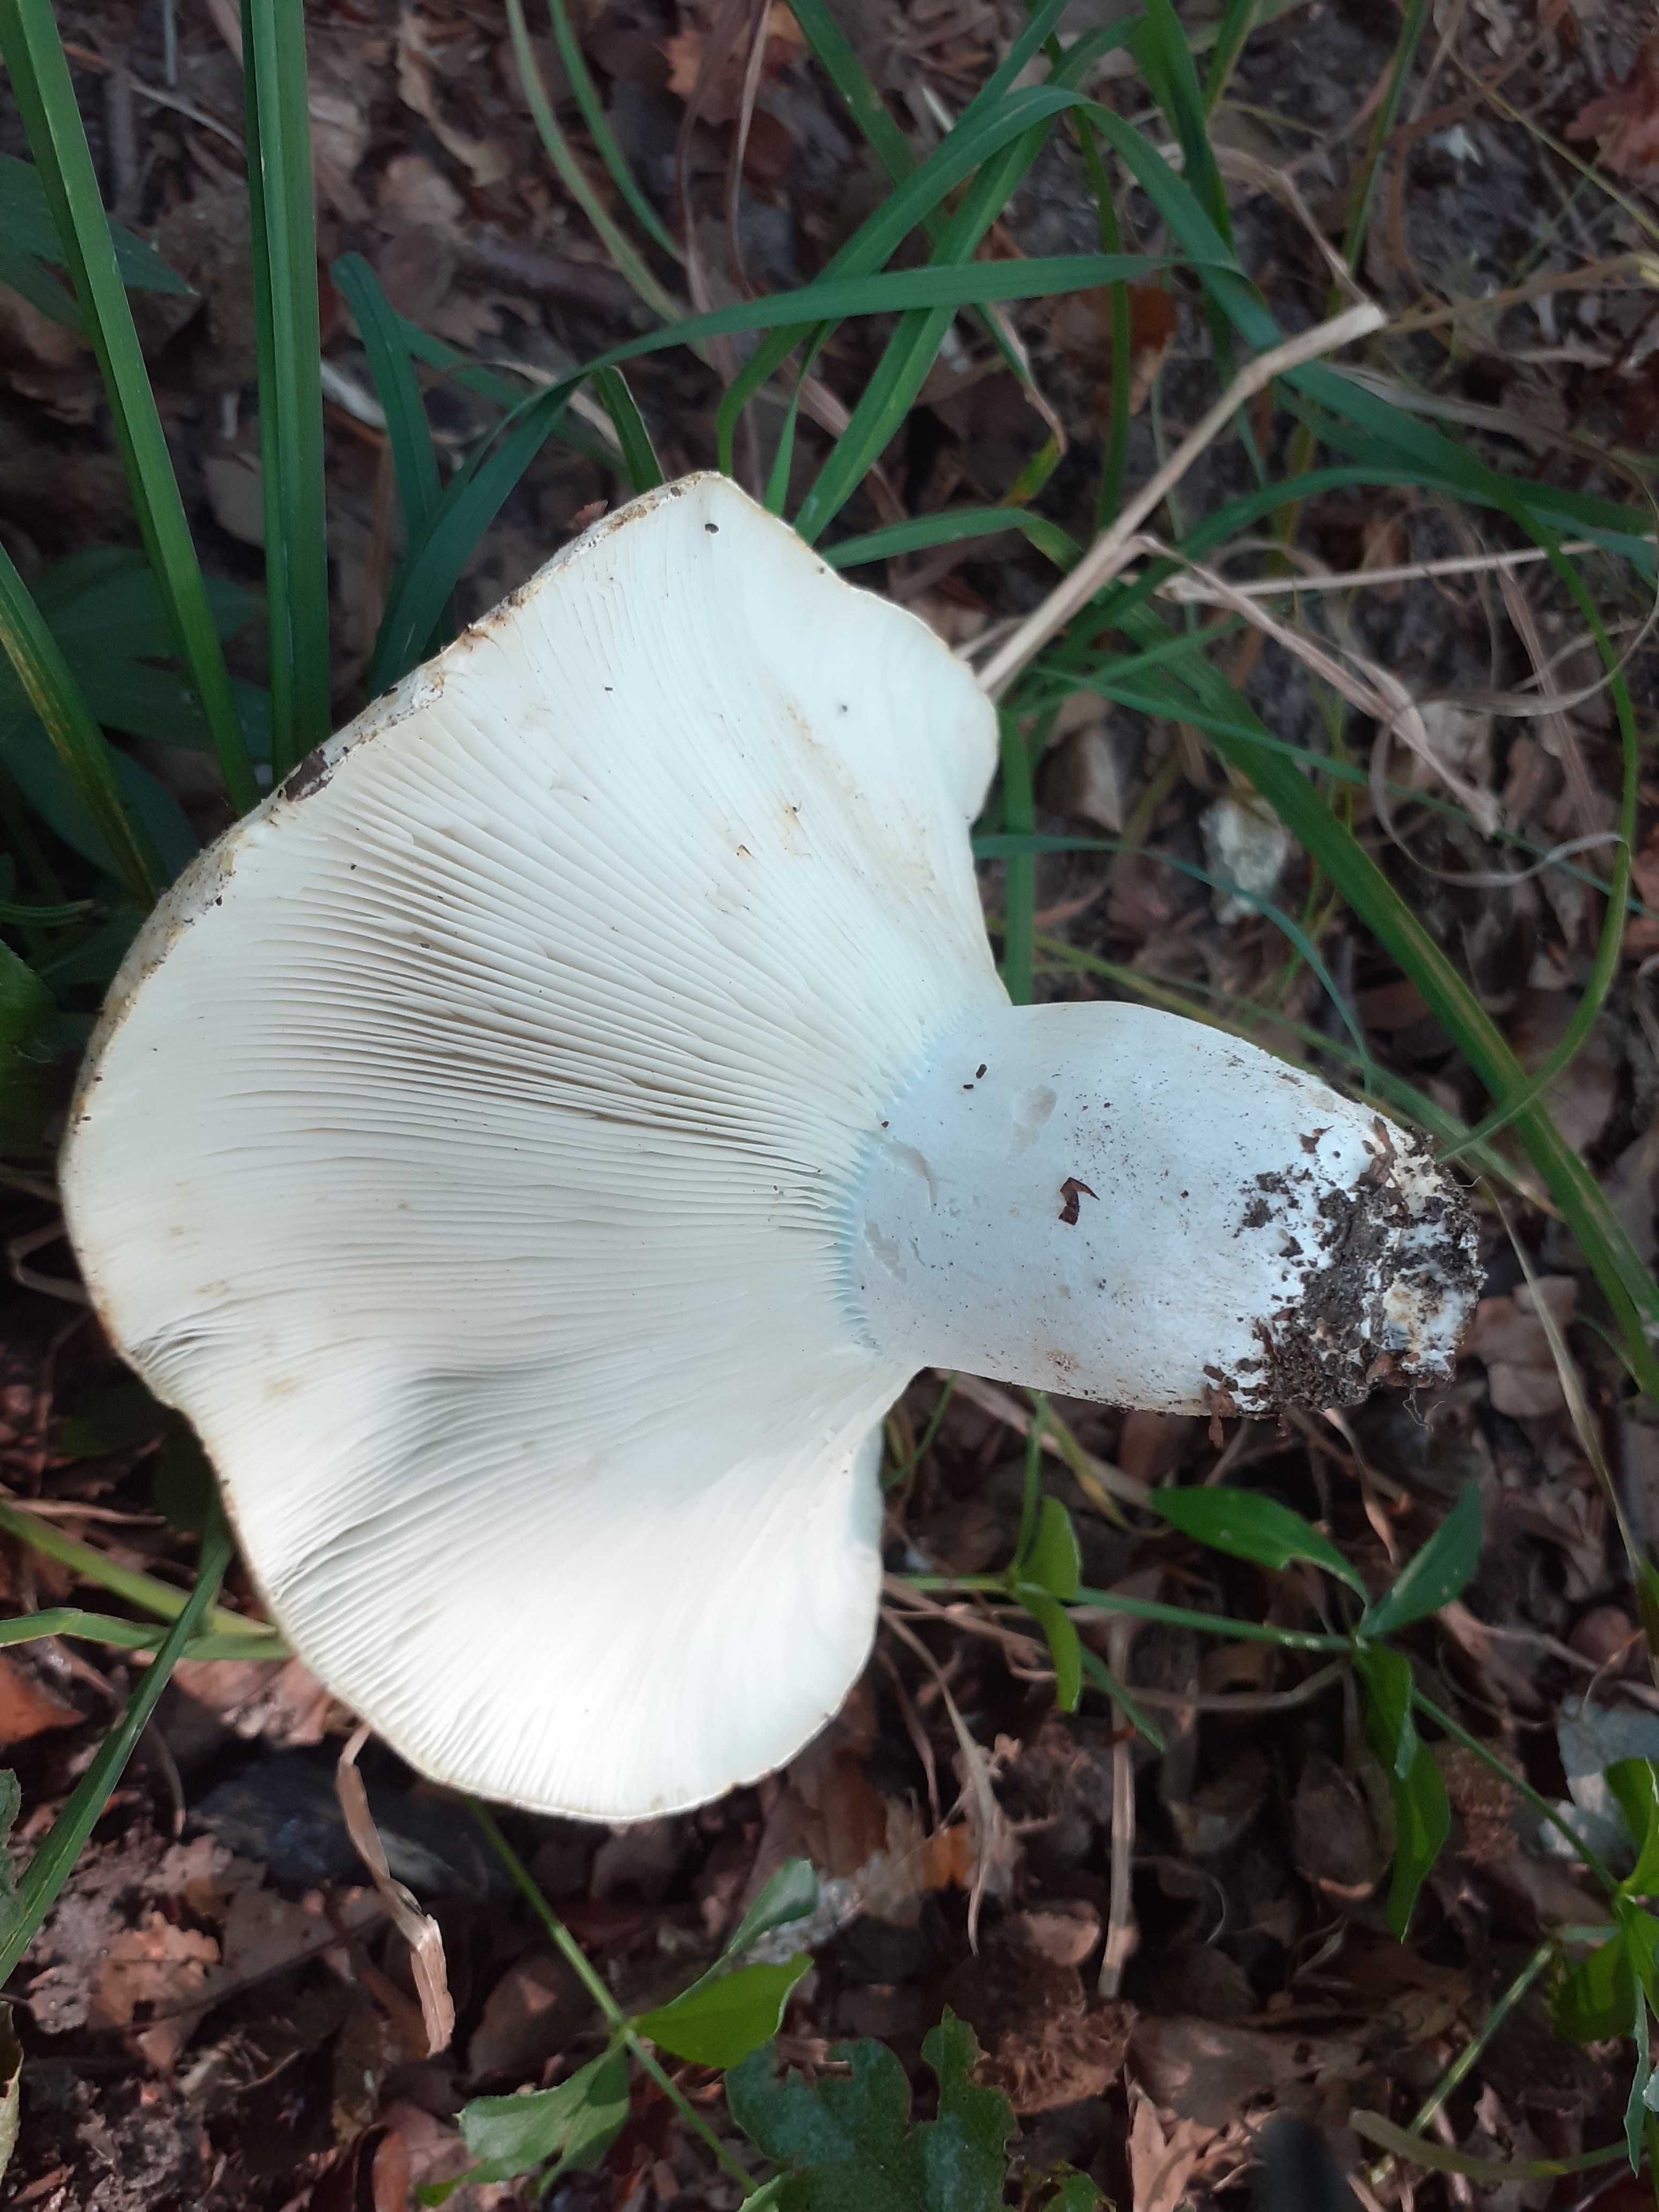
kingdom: Fungi
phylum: Basidiomycota
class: Agaricomycetes
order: Russulales
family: Russulaceae
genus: Russula
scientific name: Russula chloroides
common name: grønhalset tragt-skørhat
